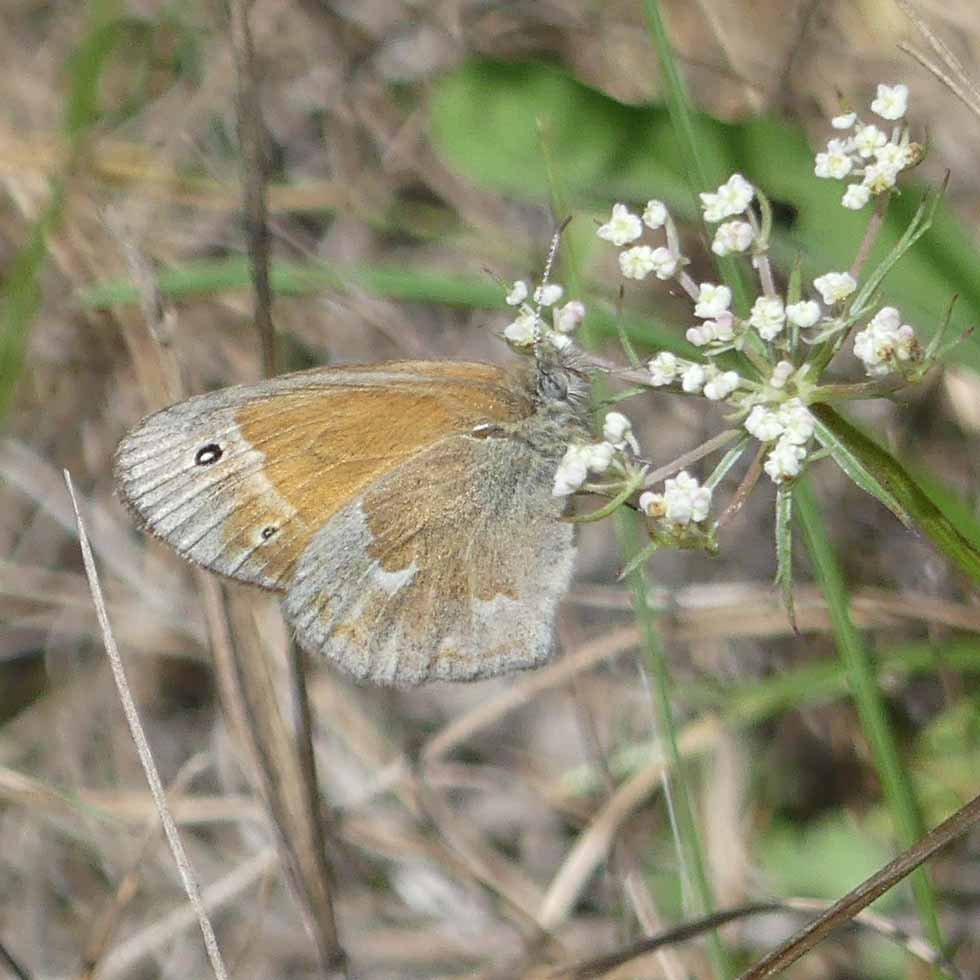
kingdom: Animalia
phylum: Arthropoda
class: Insecta
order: Lepidoptera
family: Nymphalidae
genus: Coenonympha
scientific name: Coenonympha tullia
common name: Large Heath
